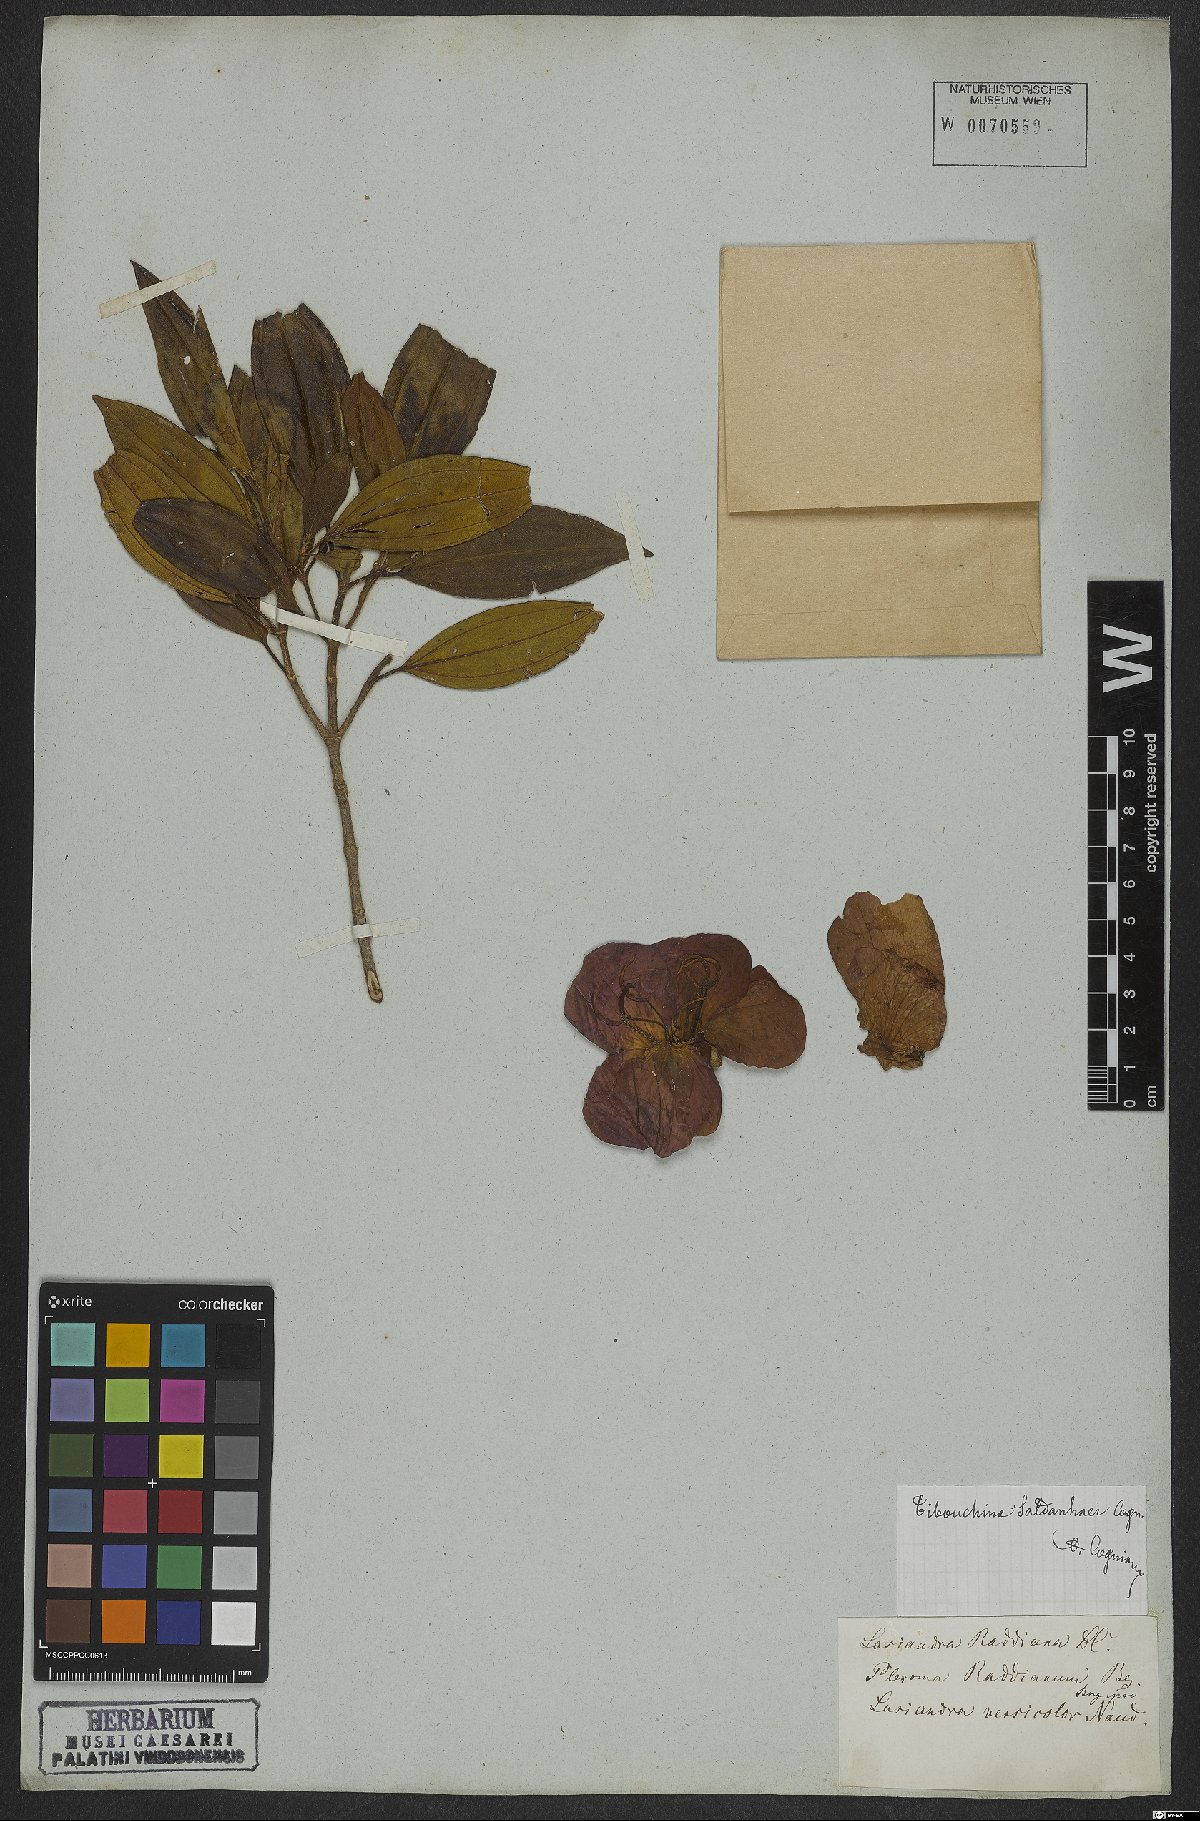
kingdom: Plantae
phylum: Tracheophyta
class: Magnoliopsida
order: Myrtales
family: Melastomataceae
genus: Pleroma
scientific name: Pleroma raddianum
